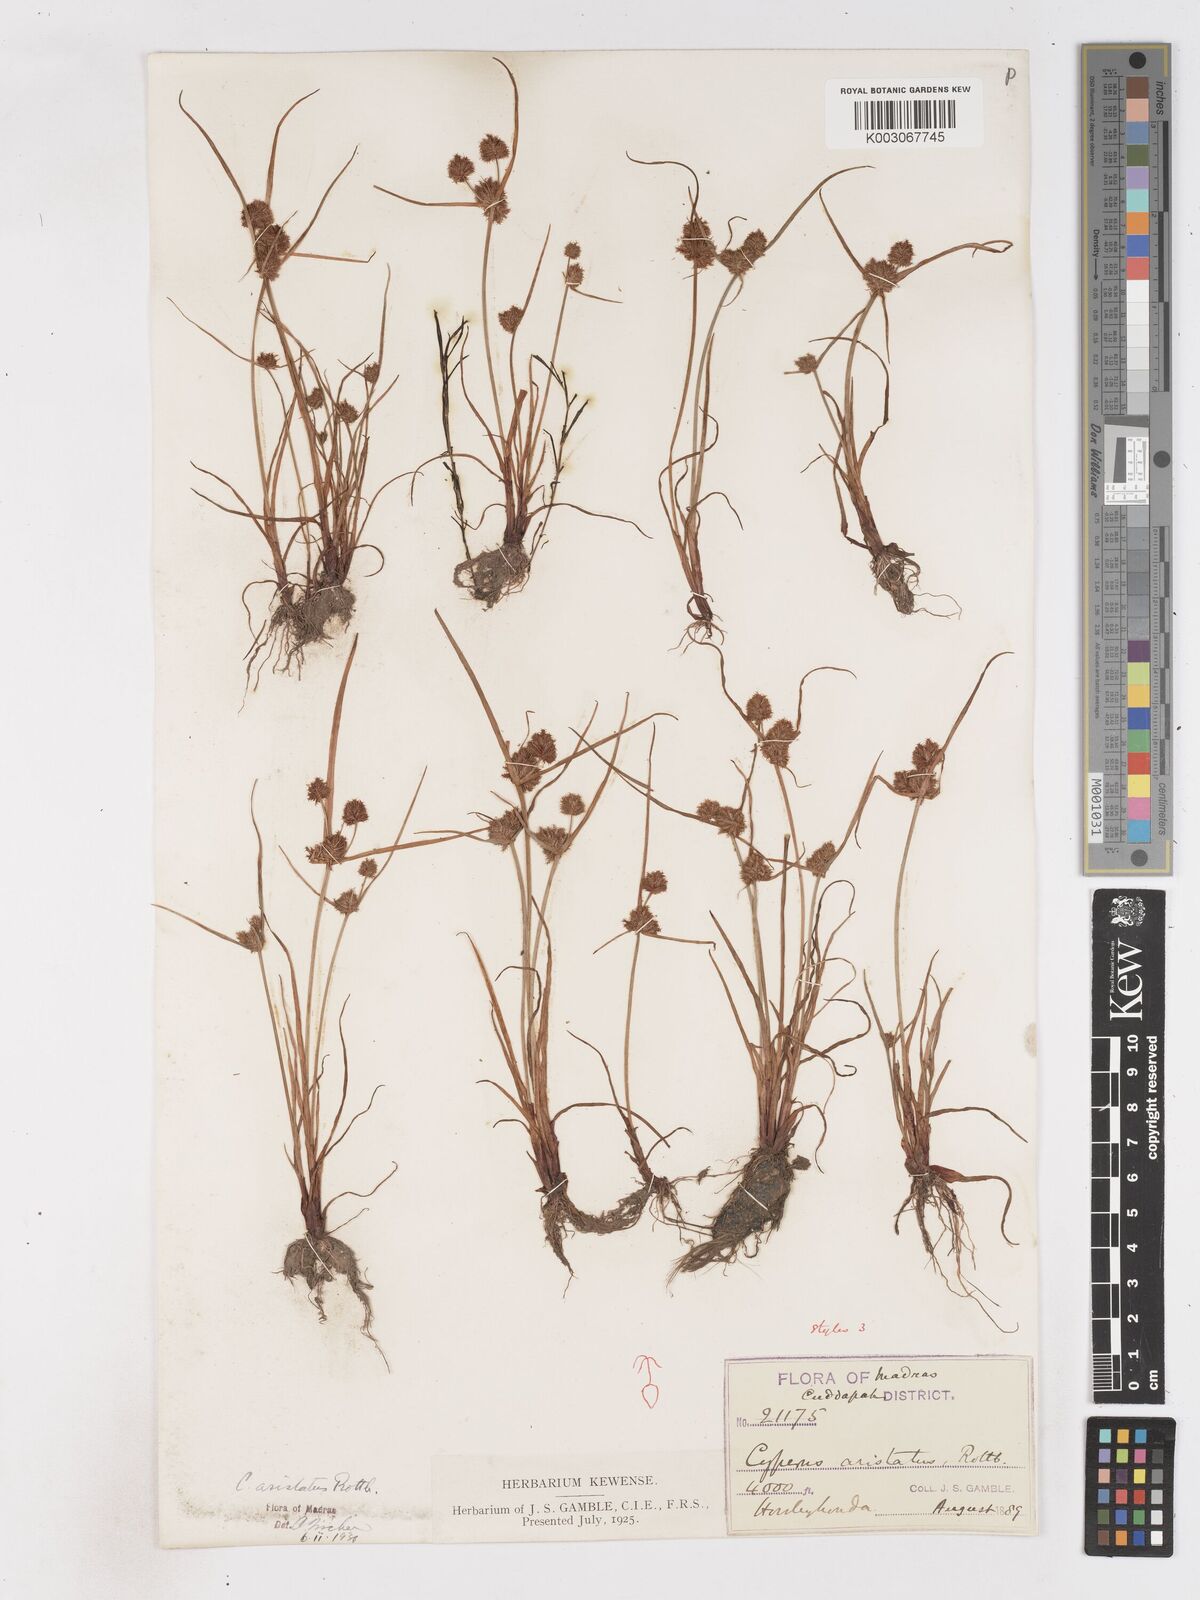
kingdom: Plantae
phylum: Tracheophyta
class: Liliopsida
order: Poales
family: Cyperaceae
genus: Cyperus
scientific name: Cyperus squarrosus
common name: Awned cyperus
